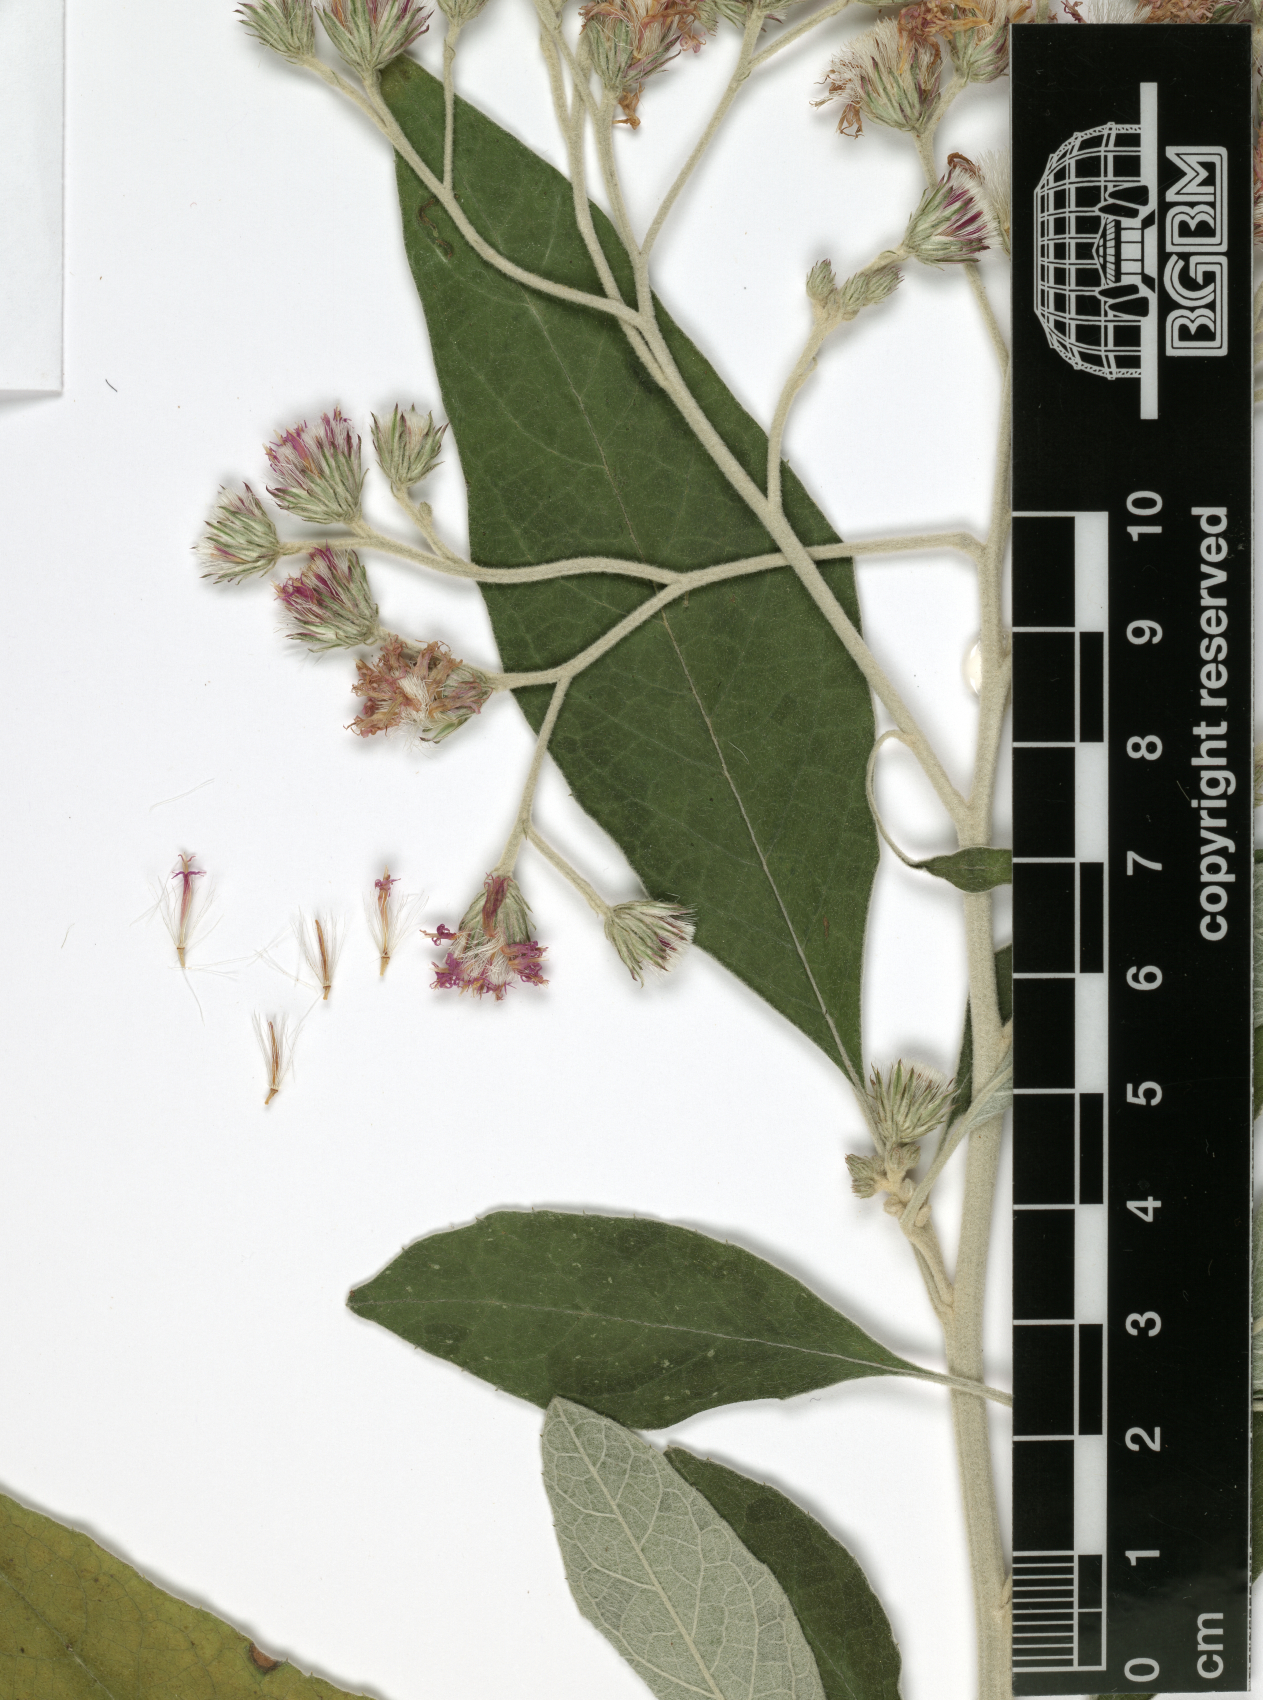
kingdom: Plantae
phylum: Tracheophyta
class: Magnoliopsida
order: Asterales
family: Asteraceae
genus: Orbivestus
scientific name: Orbivestus leopoldii
